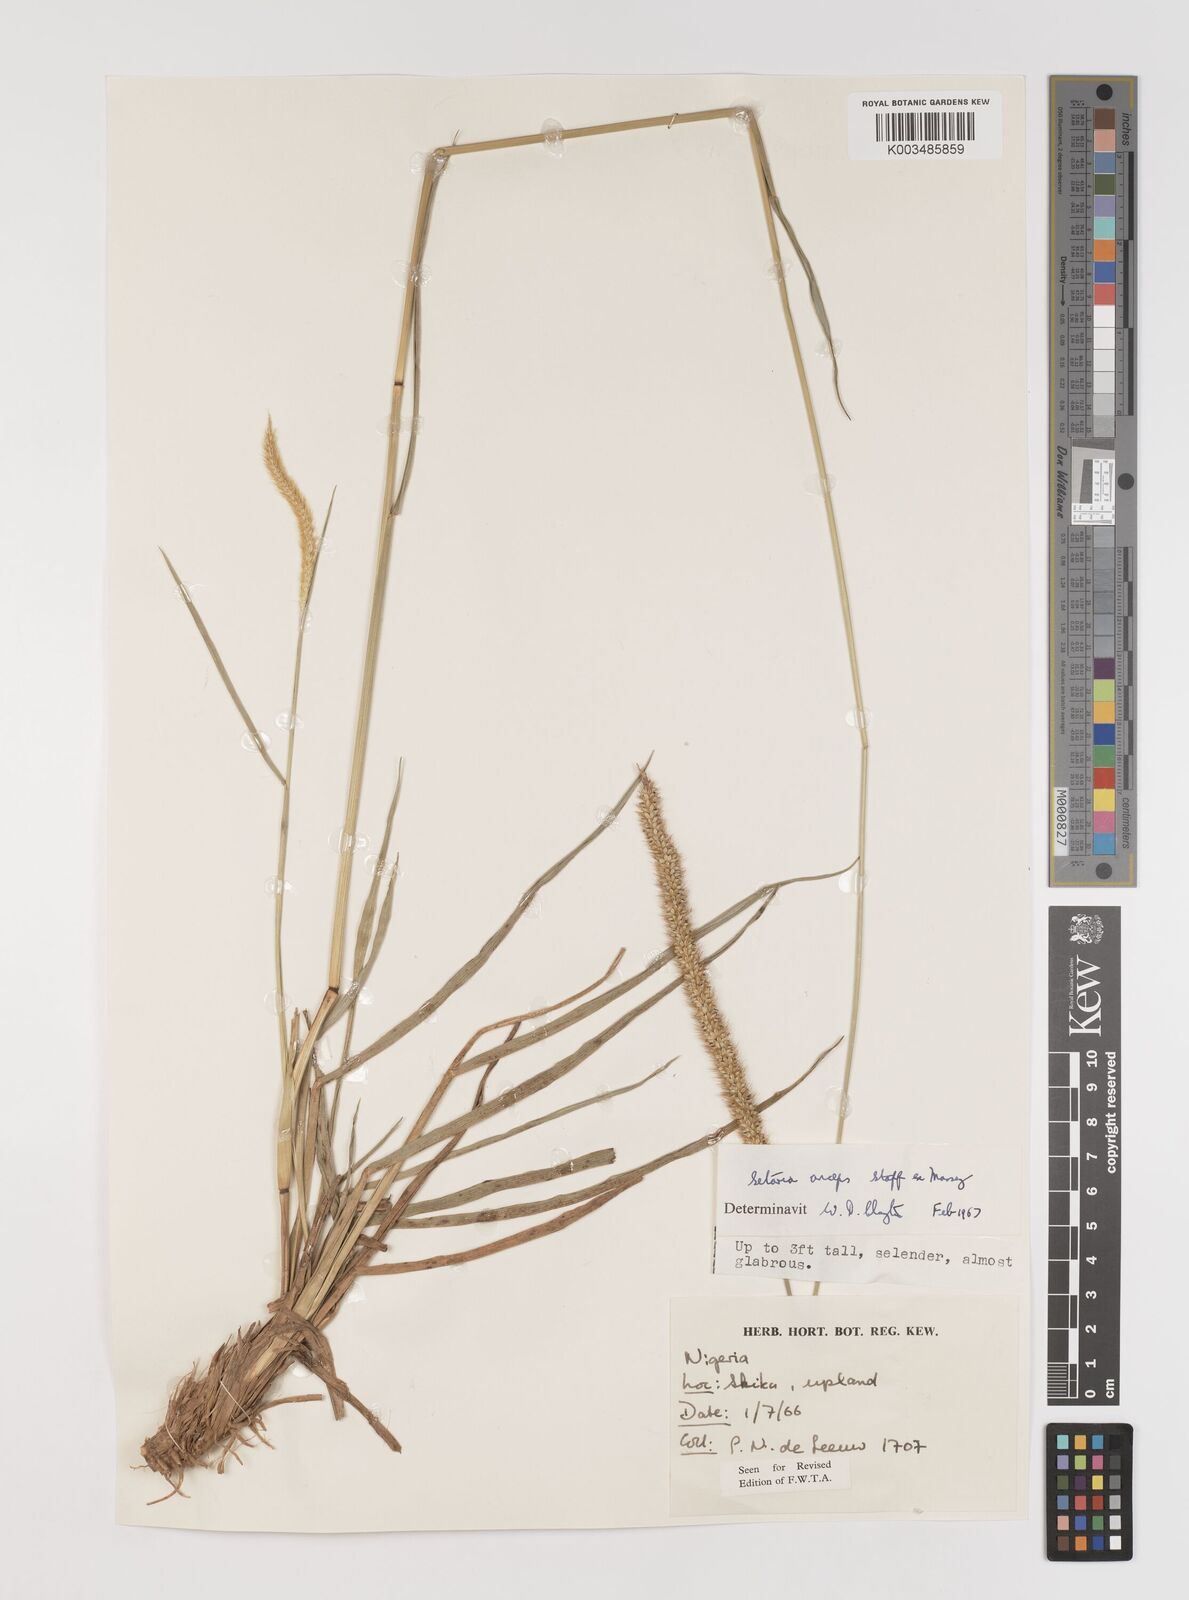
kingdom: Plantae
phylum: Tracheophyta
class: Liliopsida
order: Poales
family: Poaceae
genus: Setaria
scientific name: Setaria sphacelata
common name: African bristlegrass
